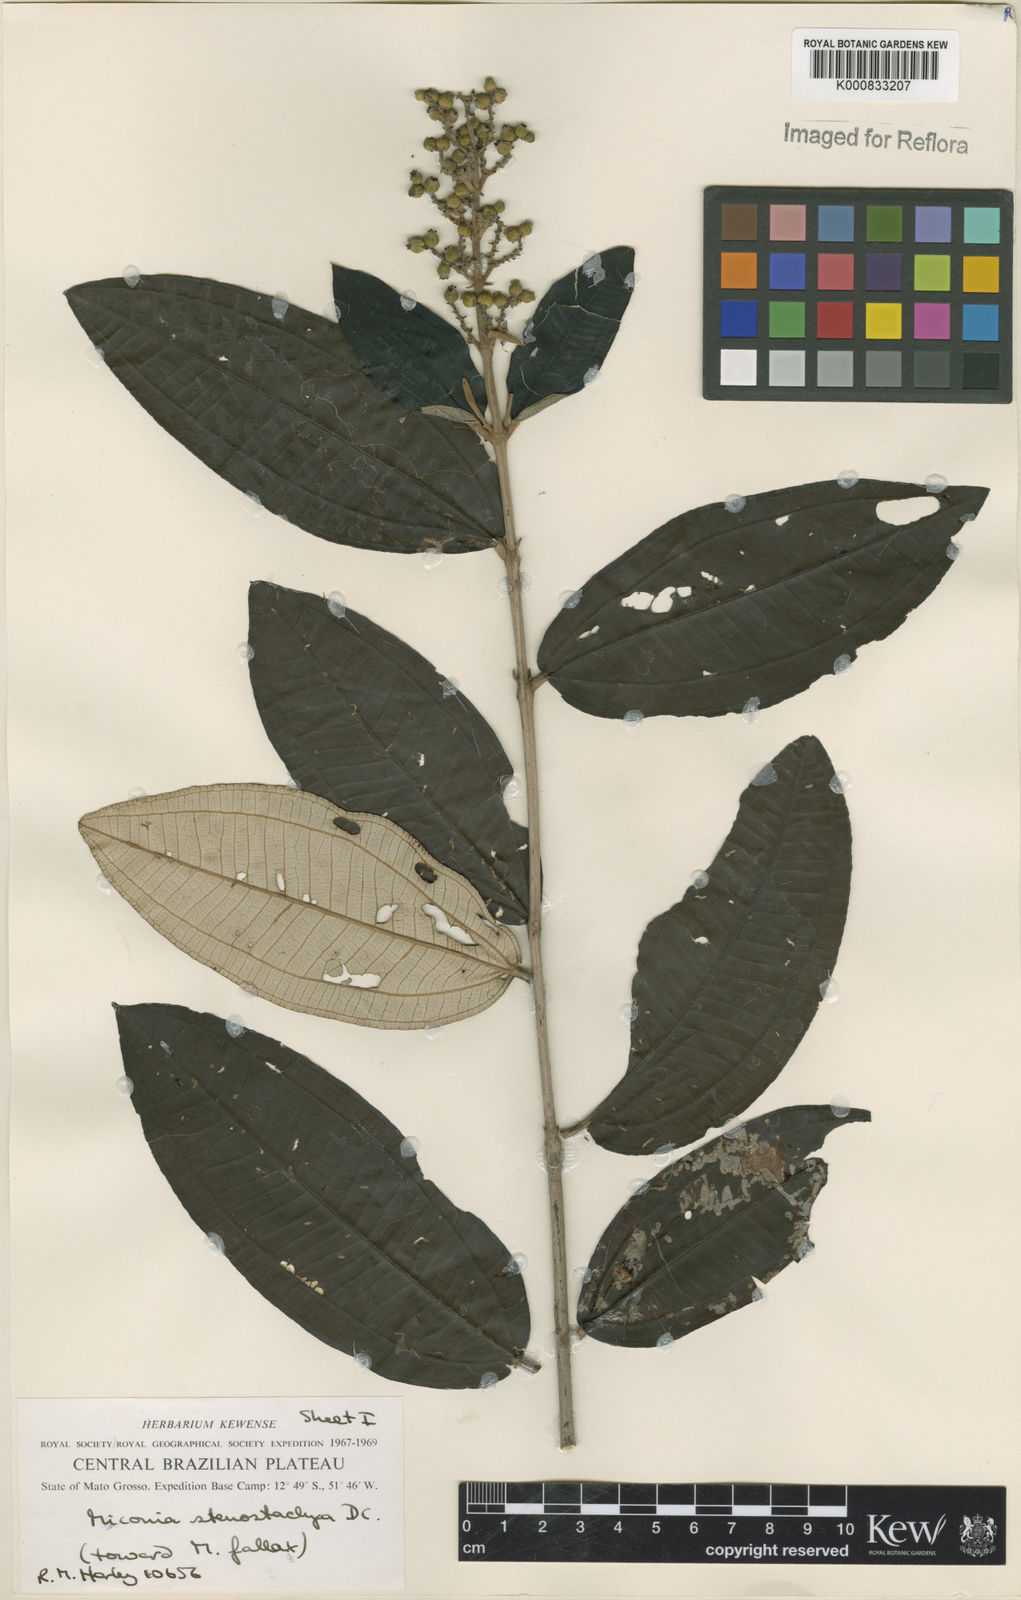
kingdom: Plantae
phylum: Tracheophyta
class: Magnoliopsida
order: Myrtales
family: Melastomataceae
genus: Miconia
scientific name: Miconia stenostachya
